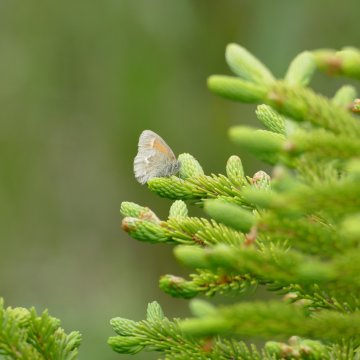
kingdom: Animalia
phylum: Arthropoda
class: Insecta
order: Lepidoptera
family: Nymphalidae
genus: Coenonympha
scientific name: Coenonympha tullia
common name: Large Heath
